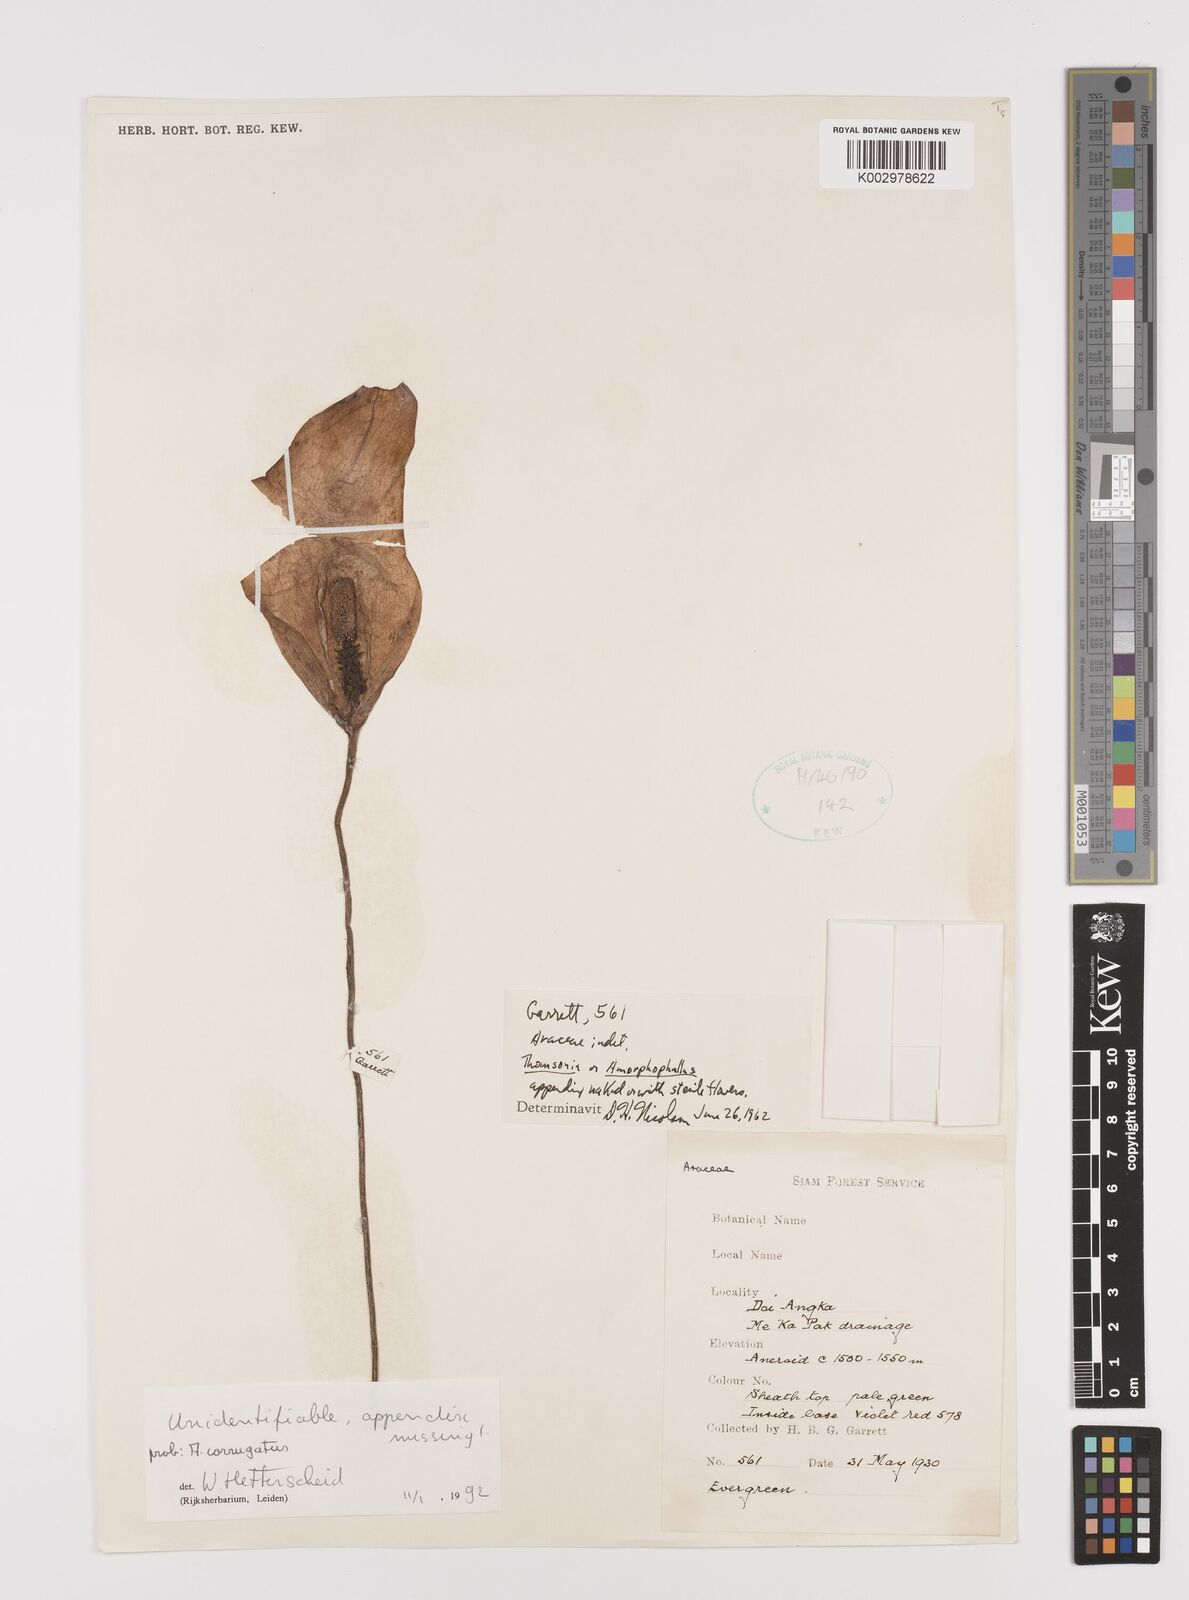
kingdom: Plantae
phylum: Tracheophyta
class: Liliopsida
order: Alismatales
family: Araceae
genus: Amorphophallus
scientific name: Amorphophallus corrugatus
